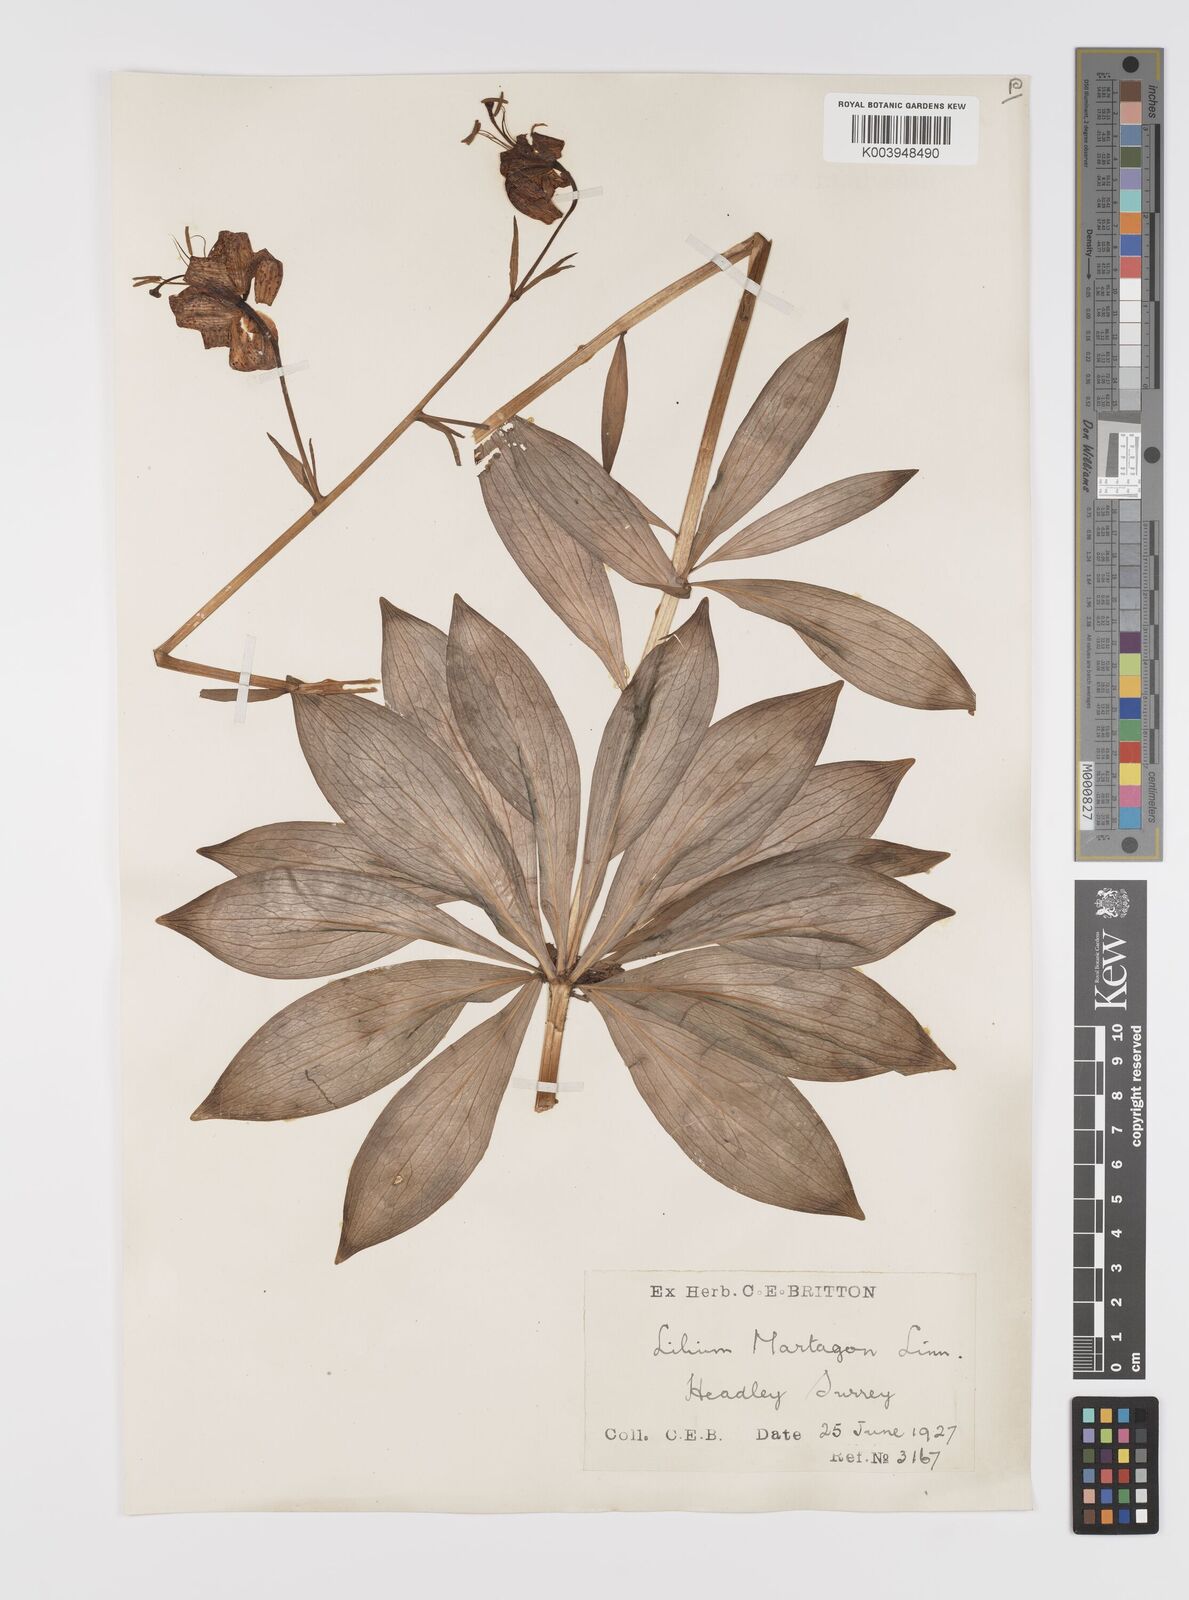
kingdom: Plantae
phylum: Tracheophyta
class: Liliopsida
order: Liliales
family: Liliaceae
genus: Lilium
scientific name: Lilium martagon
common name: Martagon lily
